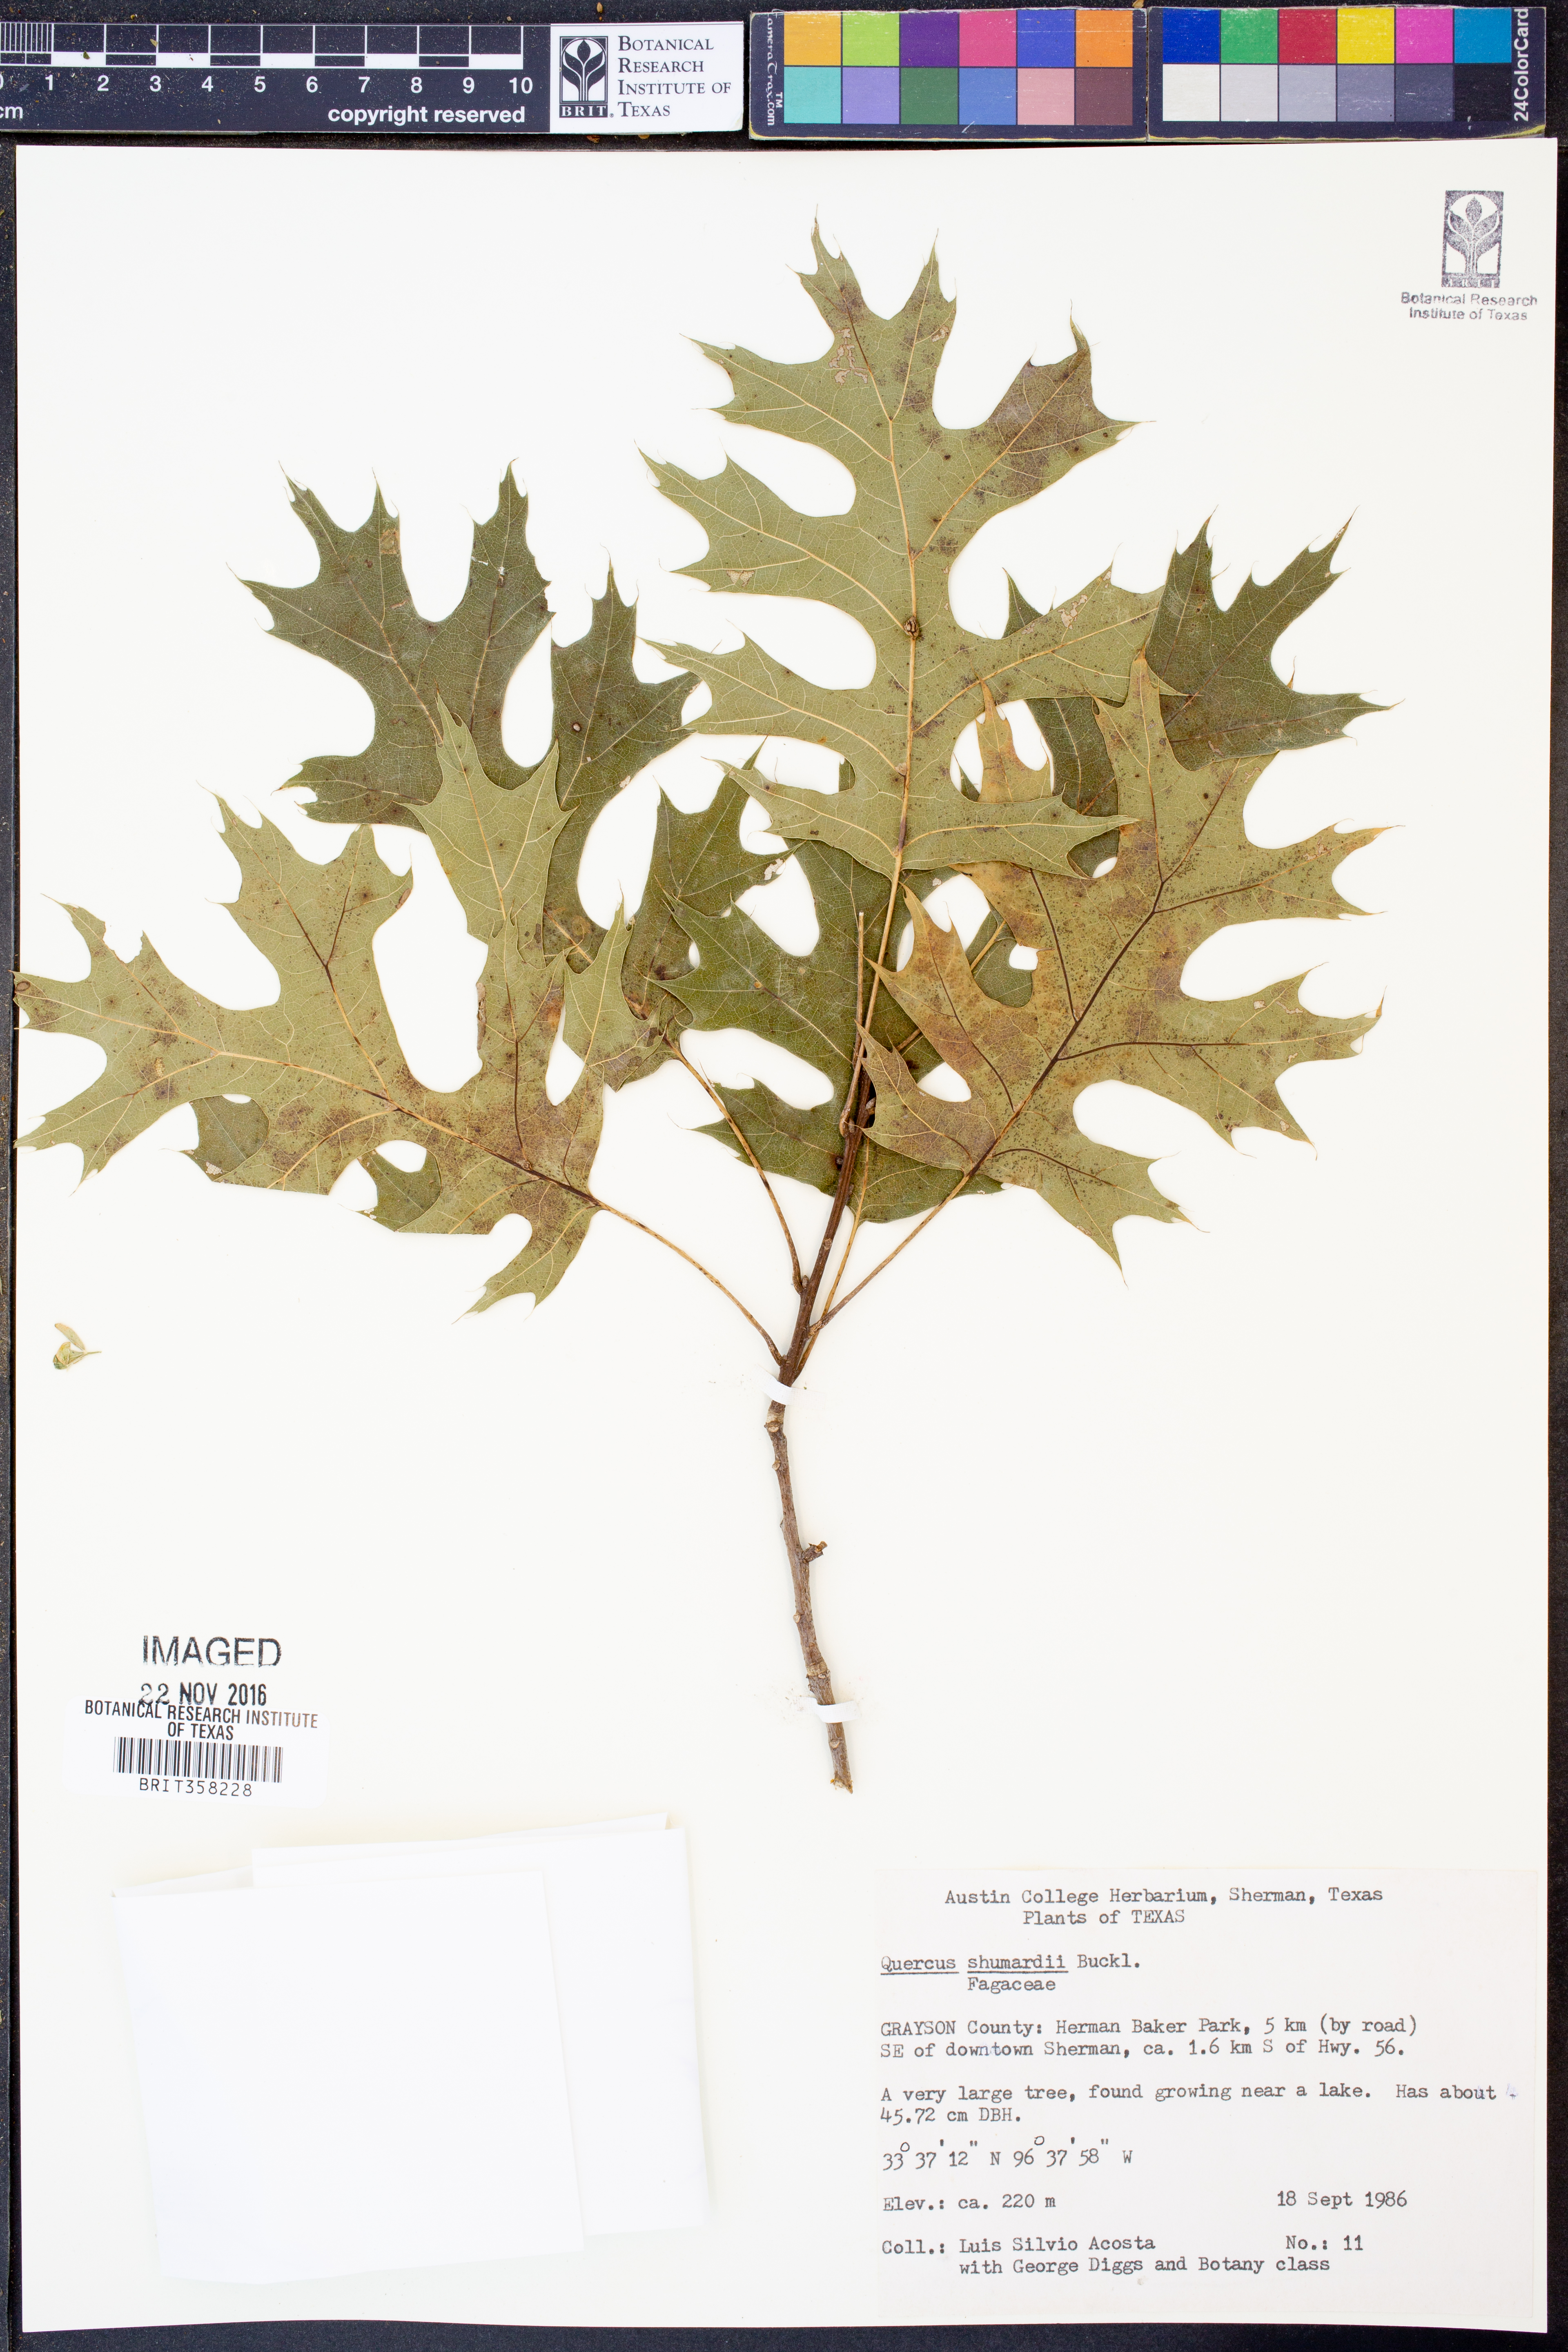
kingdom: Plantae
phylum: Tracheophyta
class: Magnoliopsida
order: Fagales
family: Fagaceae
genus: Quercus
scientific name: Quercus shumardii
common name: Shumard oak
